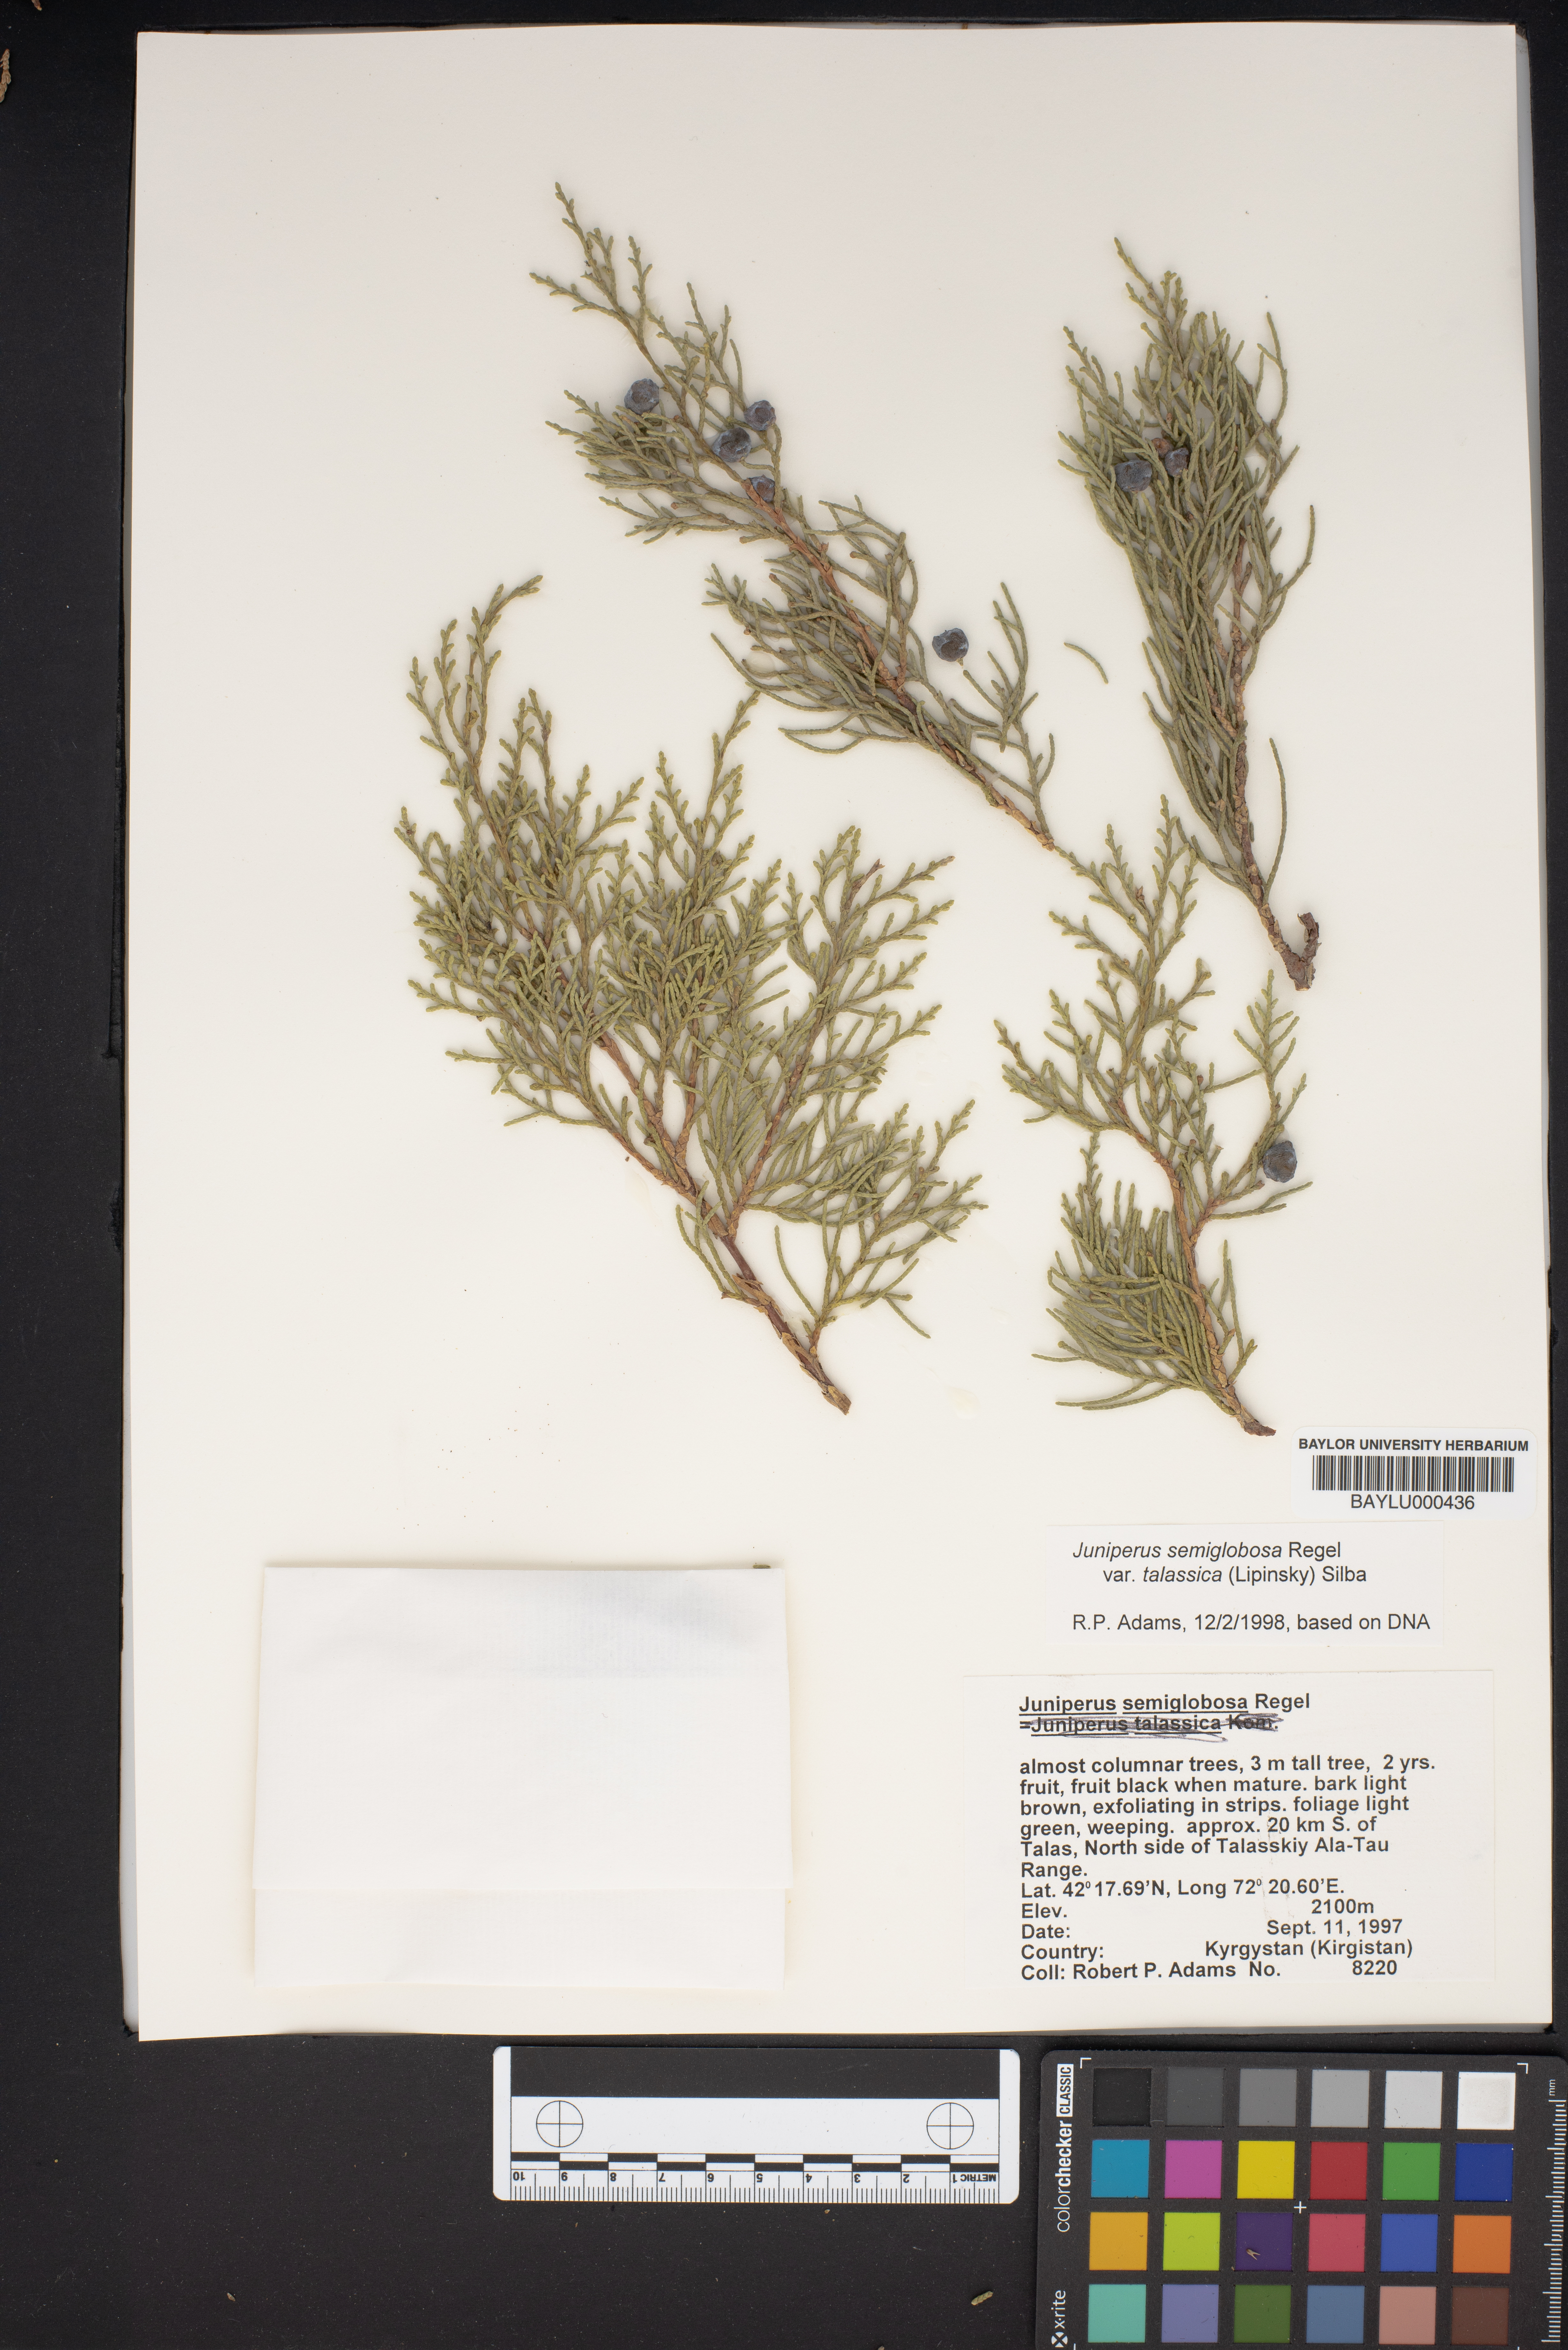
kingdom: Plantae
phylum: Tracheophyta
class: Pinopsida
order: Pinales
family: Cupressaceae
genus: Juniperus
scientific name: Juniperus semiglobosa
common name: Pencil cedar
